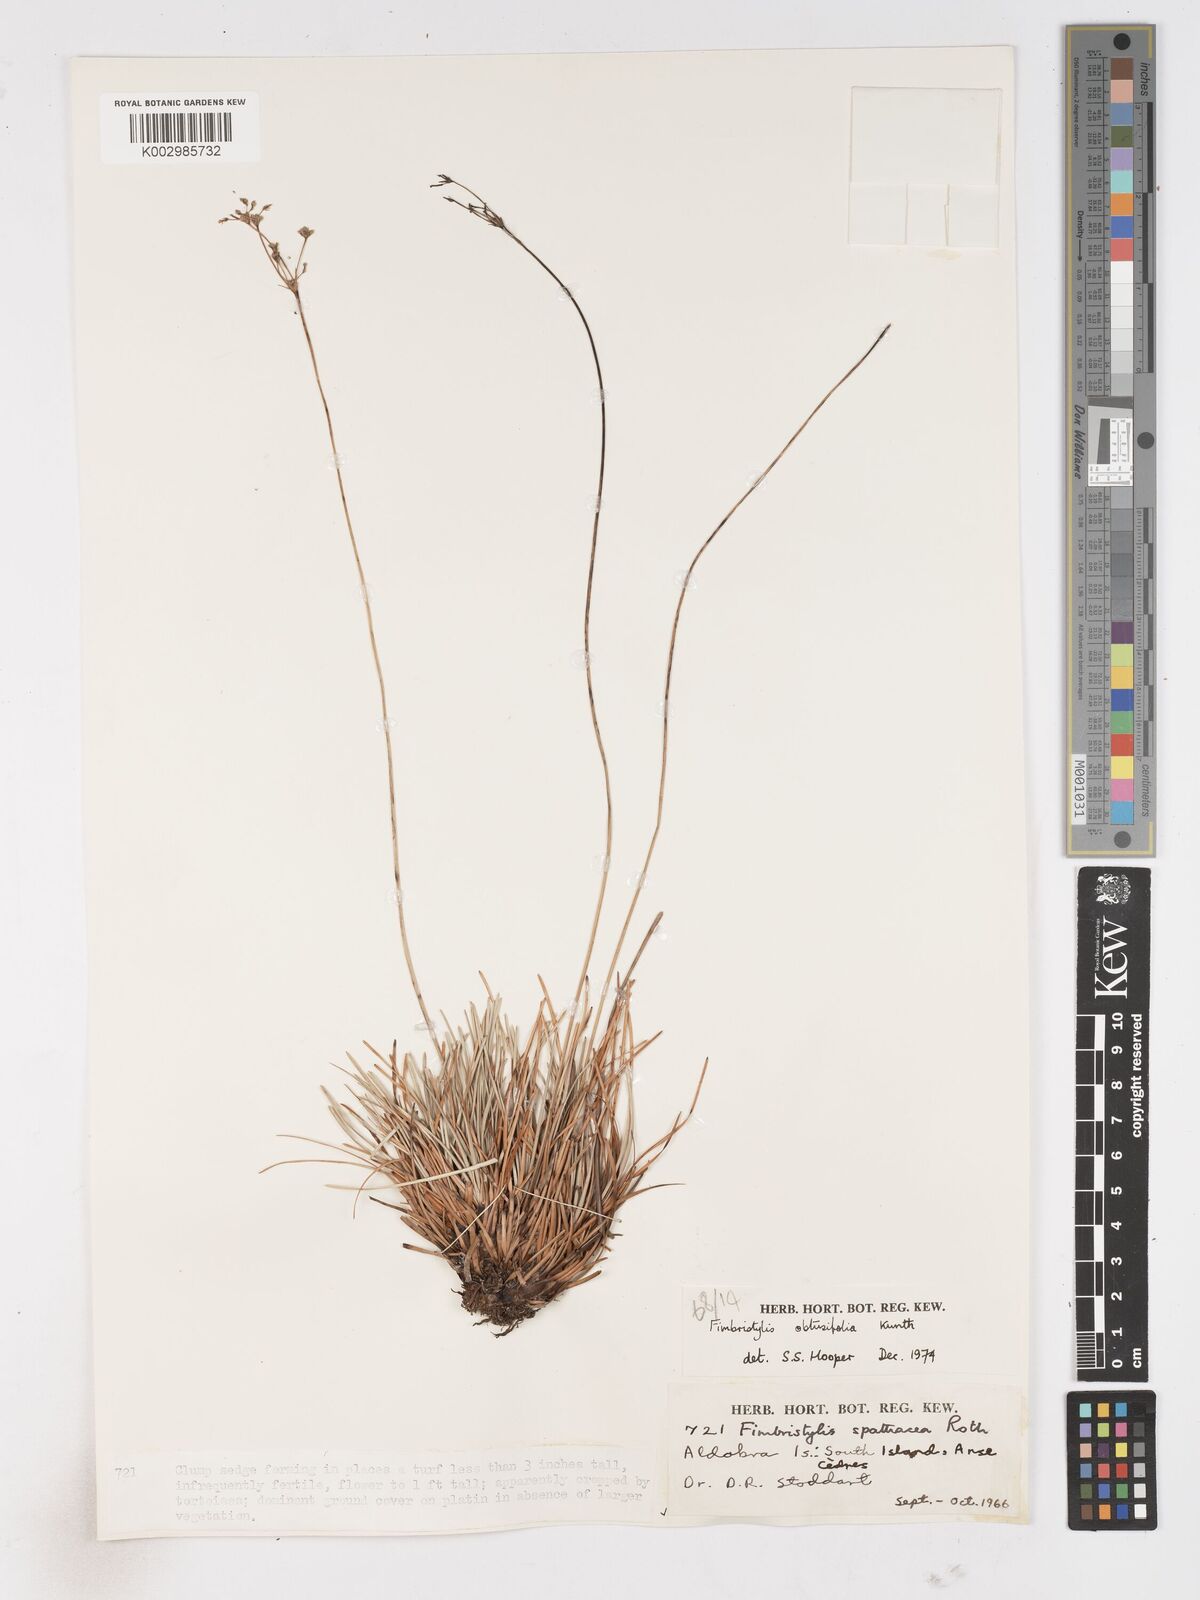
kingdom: Plantae
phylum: Tracheophyta
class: Liliopsida
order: Poales
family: Cyperaceae
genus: Fimbristylis
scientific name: Fimbristylis cymosa
